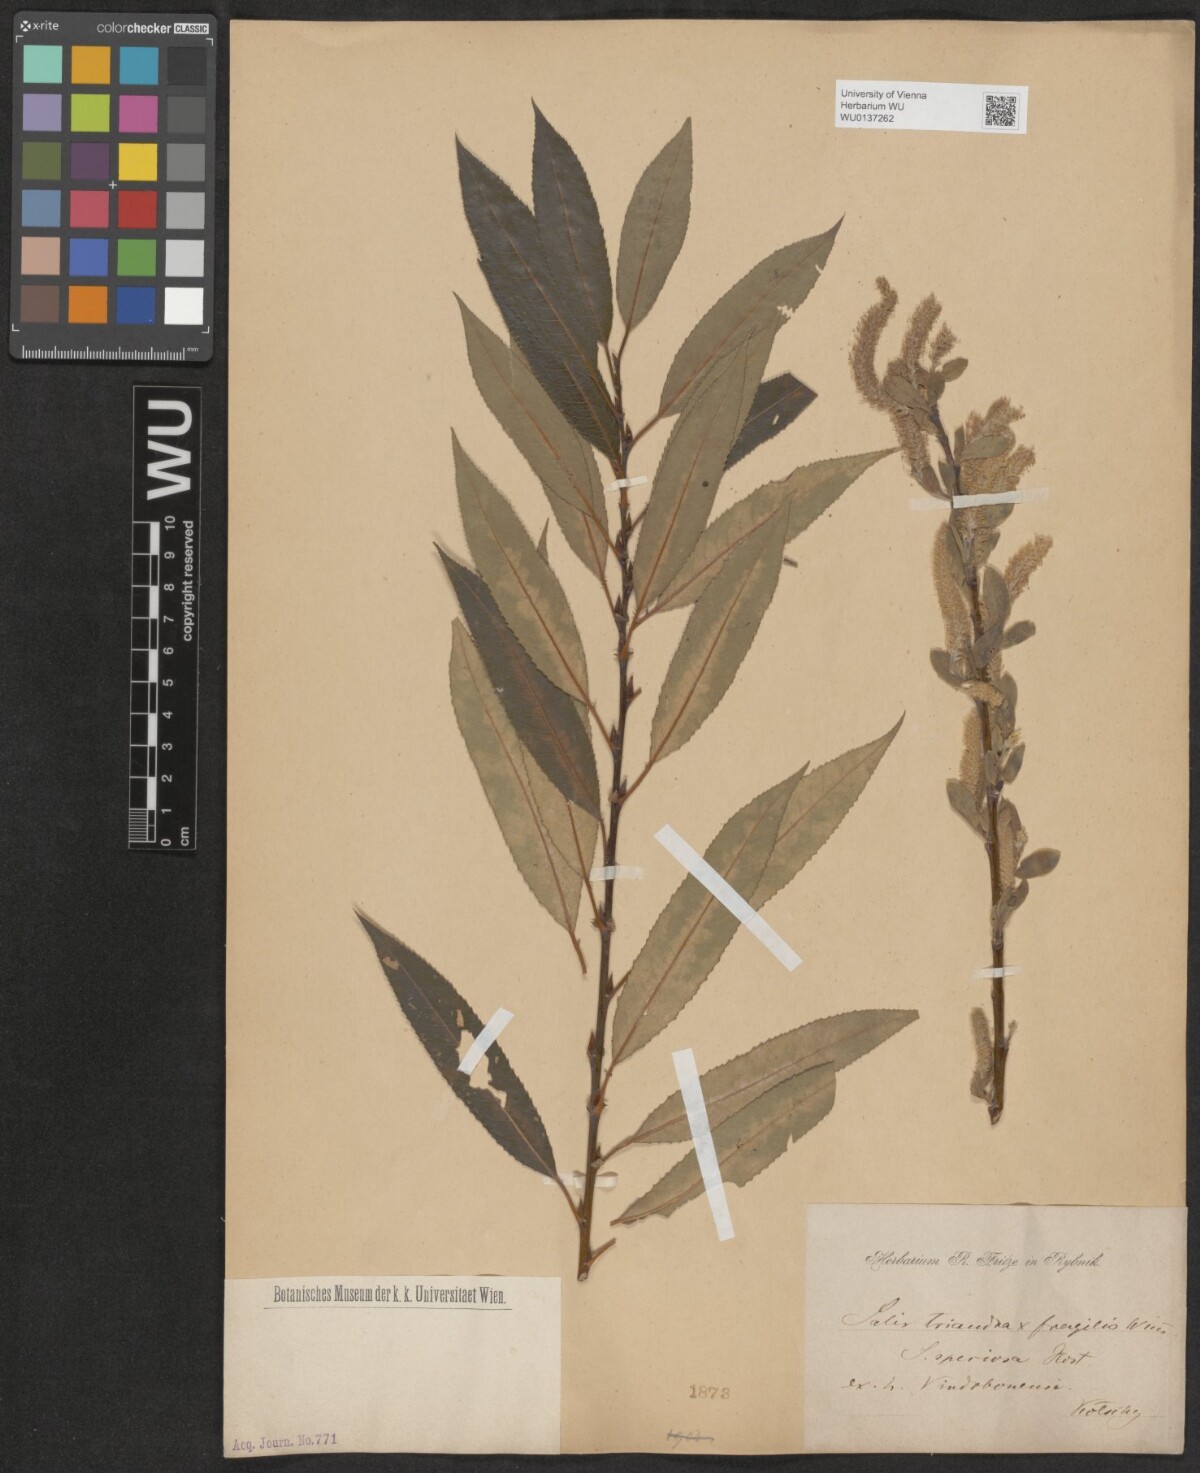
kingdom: Plantae
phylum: Tracheophyta
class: Magnoliopsida
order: Malpighiales
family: Salicaceae
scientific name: Salicaceae
